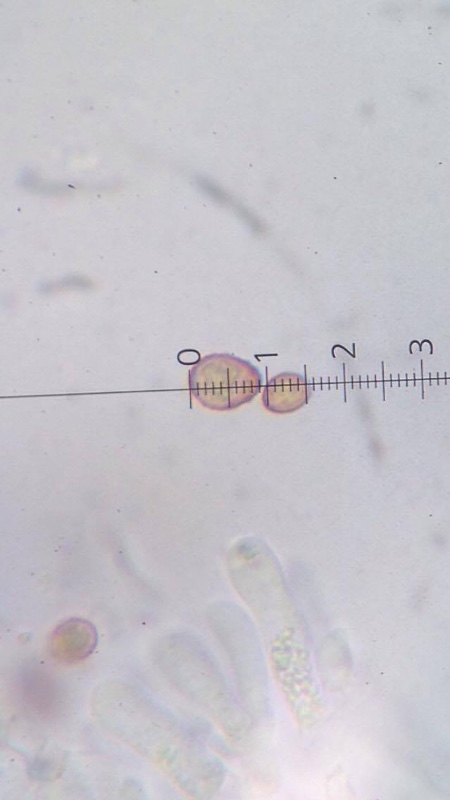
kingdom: Fungi
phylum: Basidiomycota
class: Agaricomycetes
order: Agaricales
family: Cortinariaceae
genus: Cortinarius
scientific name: Cortinarius
